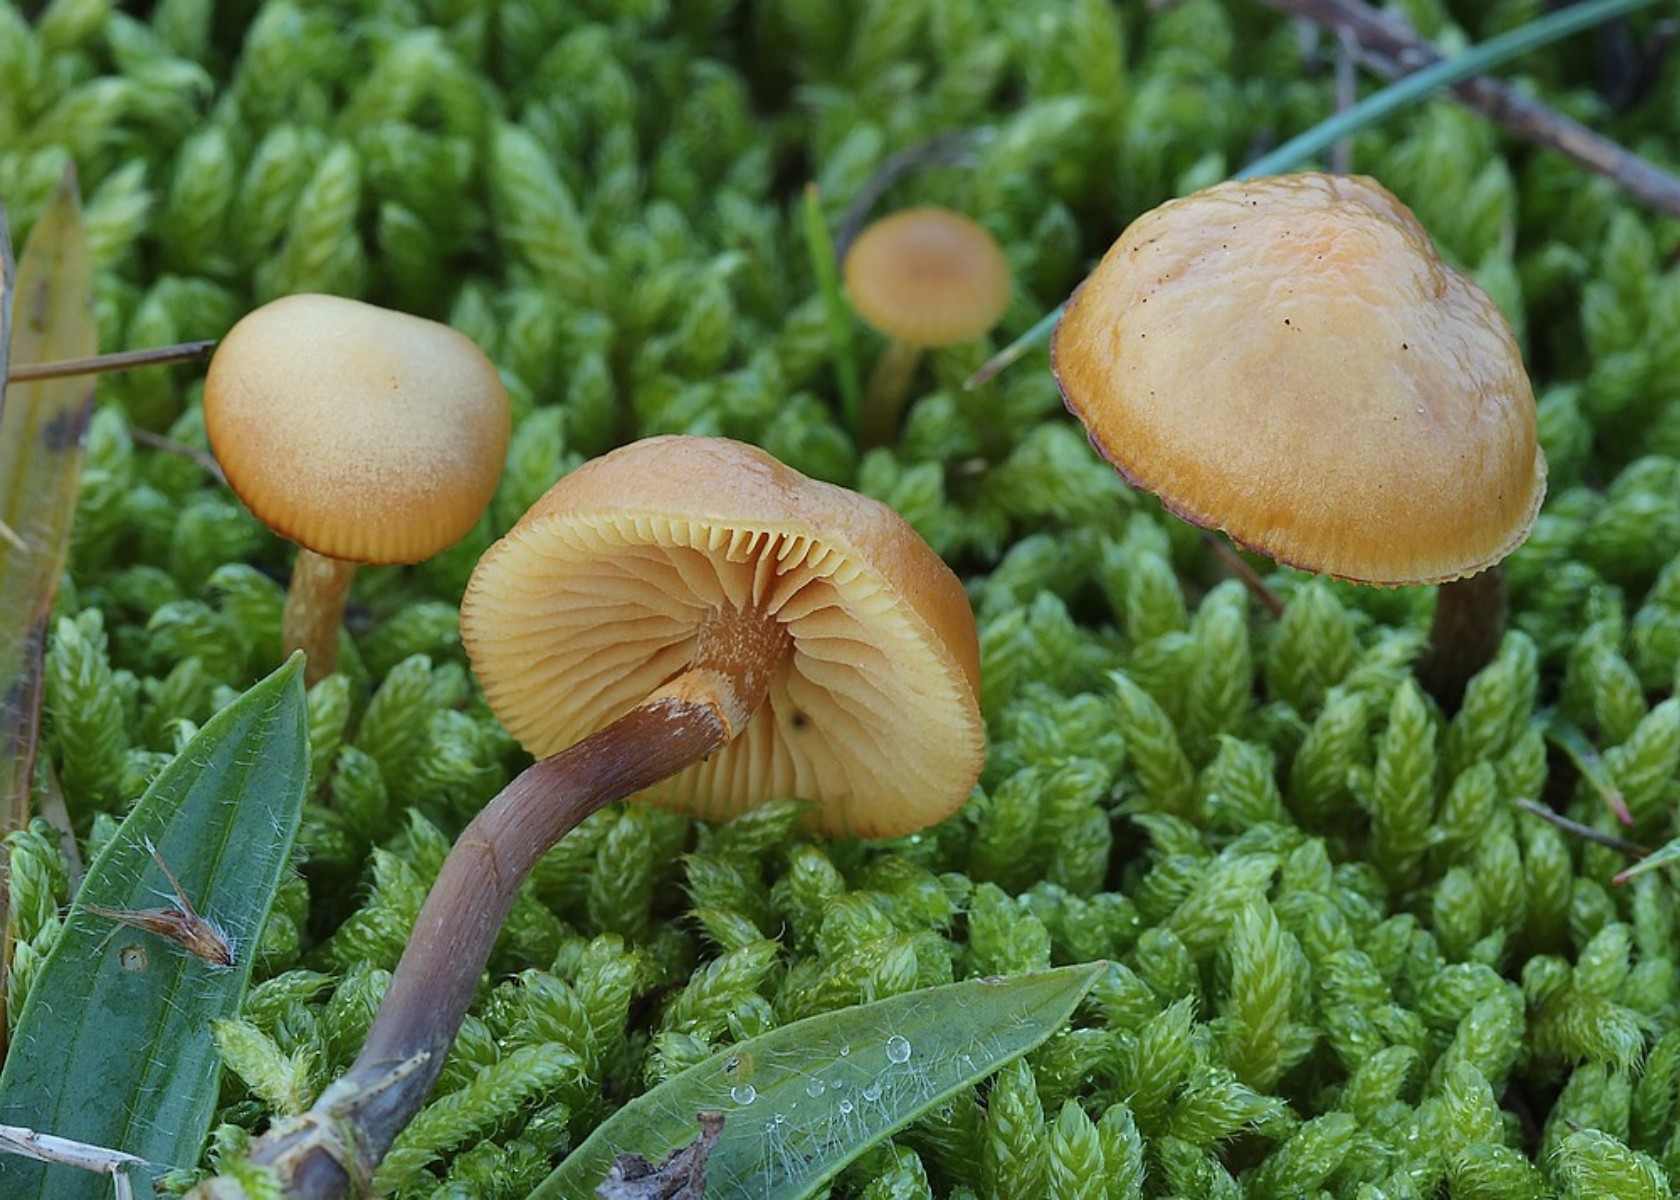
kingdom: Fungi
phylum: Basidiomycota
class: Agaricomycetes
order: Agaricales
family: Hymenogastraceae
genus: Galerina
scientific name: Galerina marginata
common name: randbæltet hjelmhat
